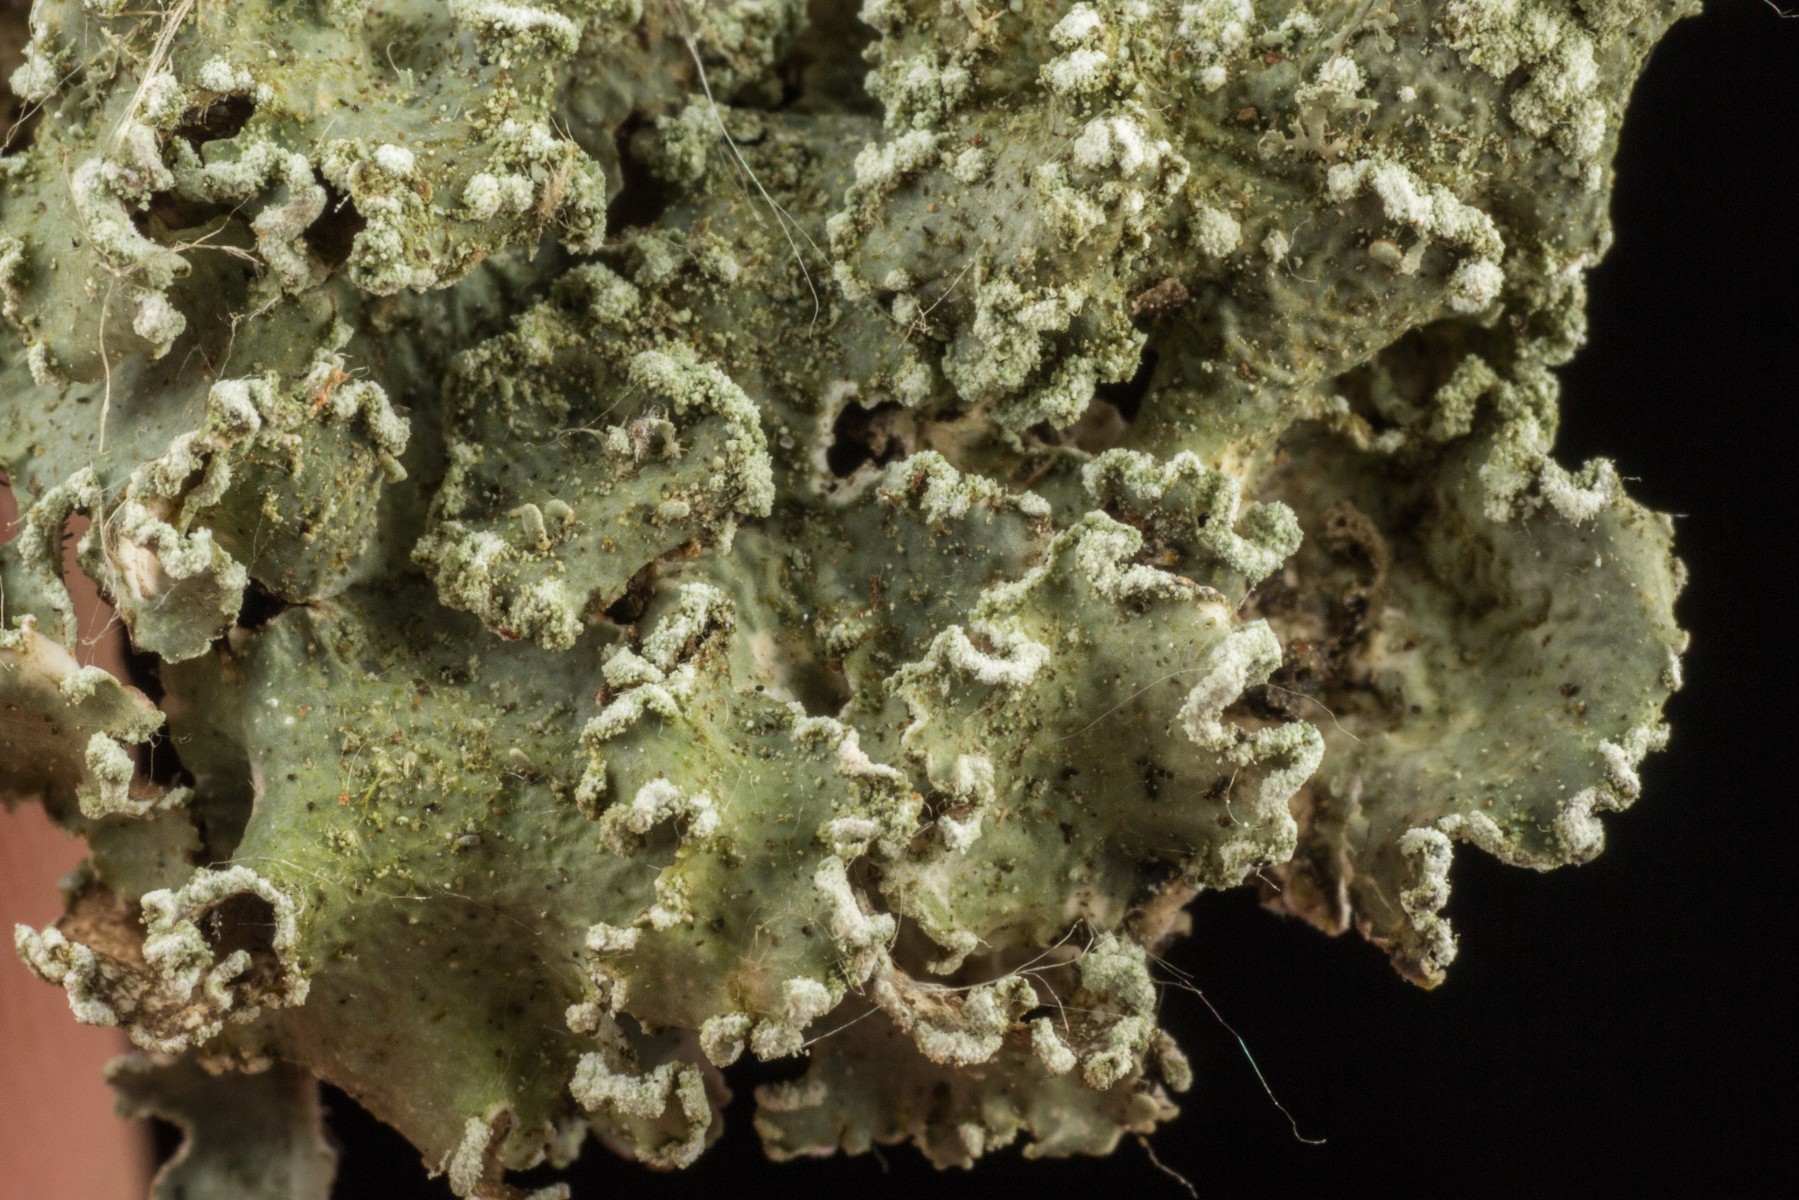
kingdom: Fungi
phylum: Ascomycota
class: Lecanoromycetes
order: Lecanorales
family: Parmeliaceae
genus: Punctelia
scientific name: Punctelia jeckeri
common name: randstøvet skållav
